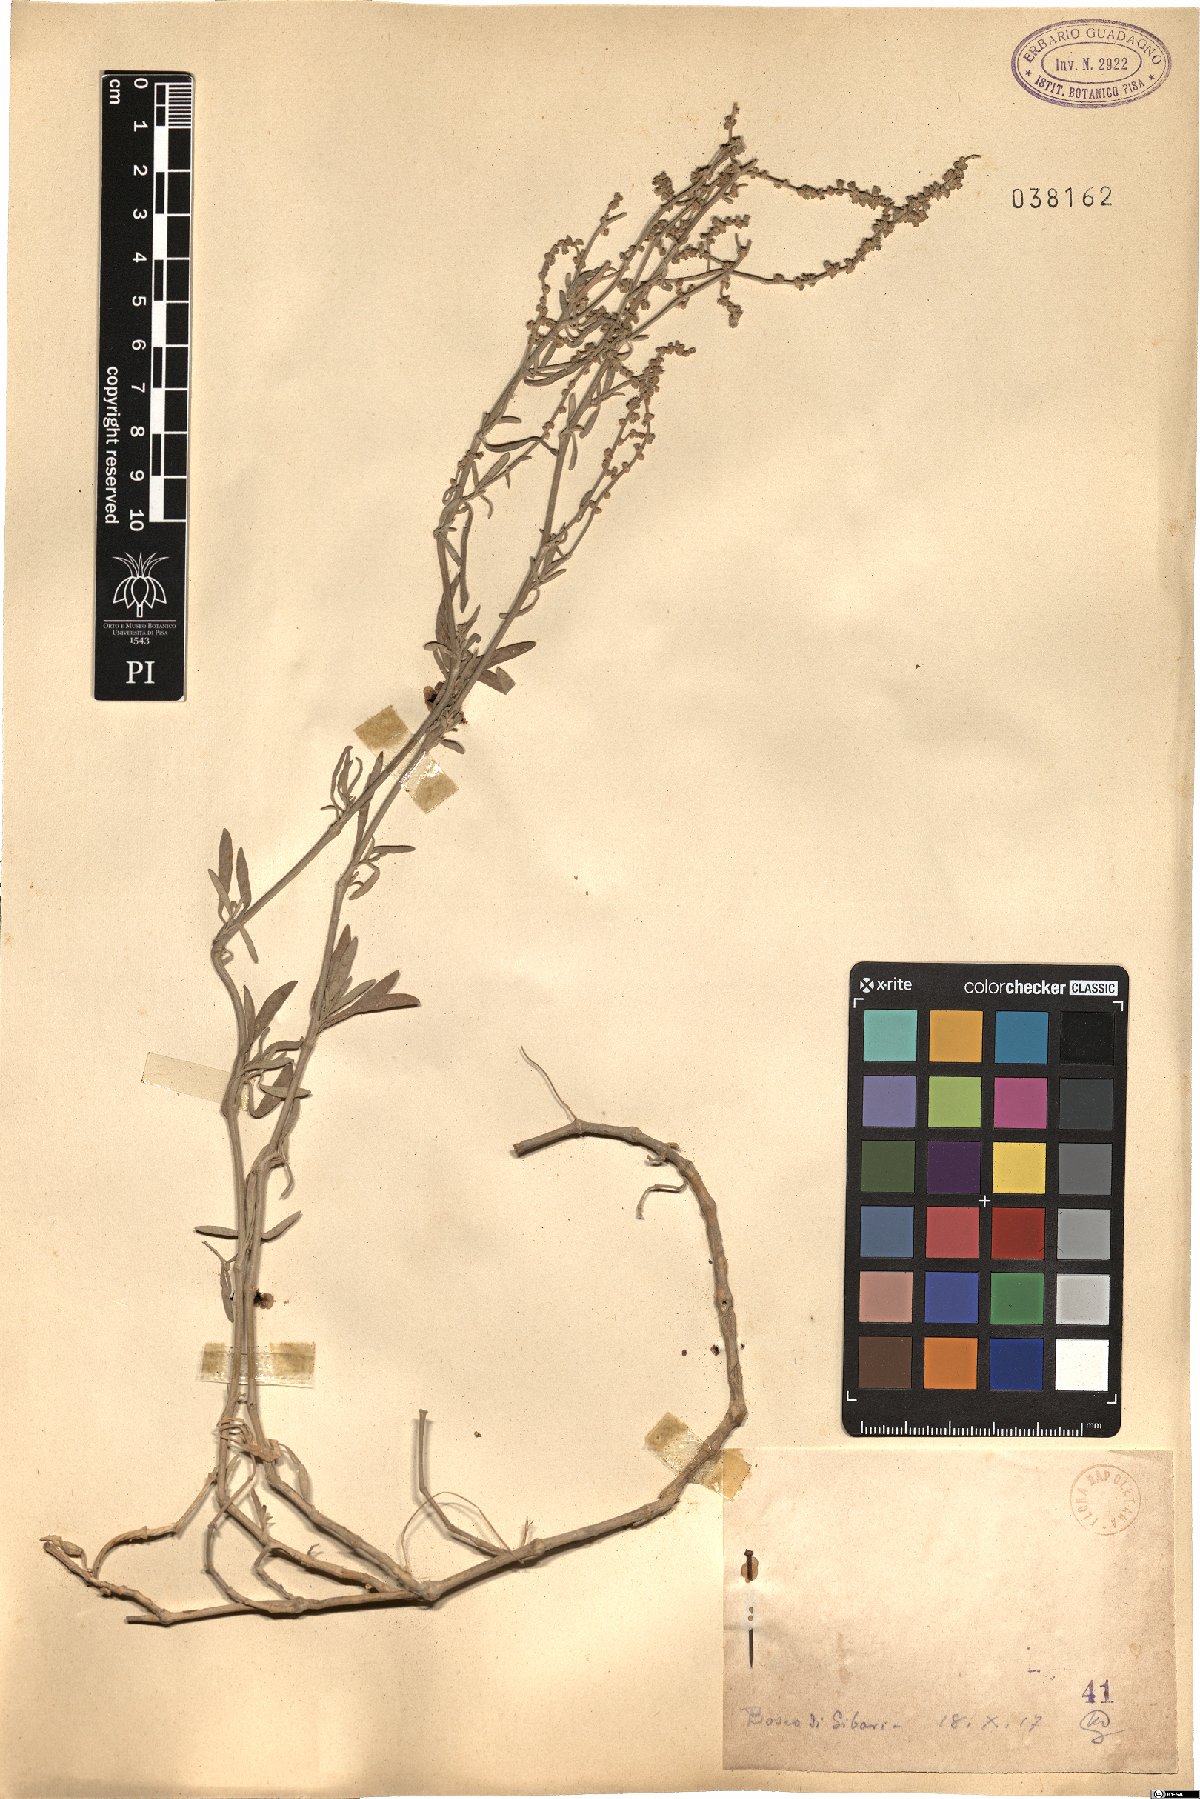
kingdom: Plantae
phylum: Tracheophyta
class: Magnoliopsida
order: Caryophyllales
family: Amaranthaceae
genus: Axyris
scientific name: Axyris
